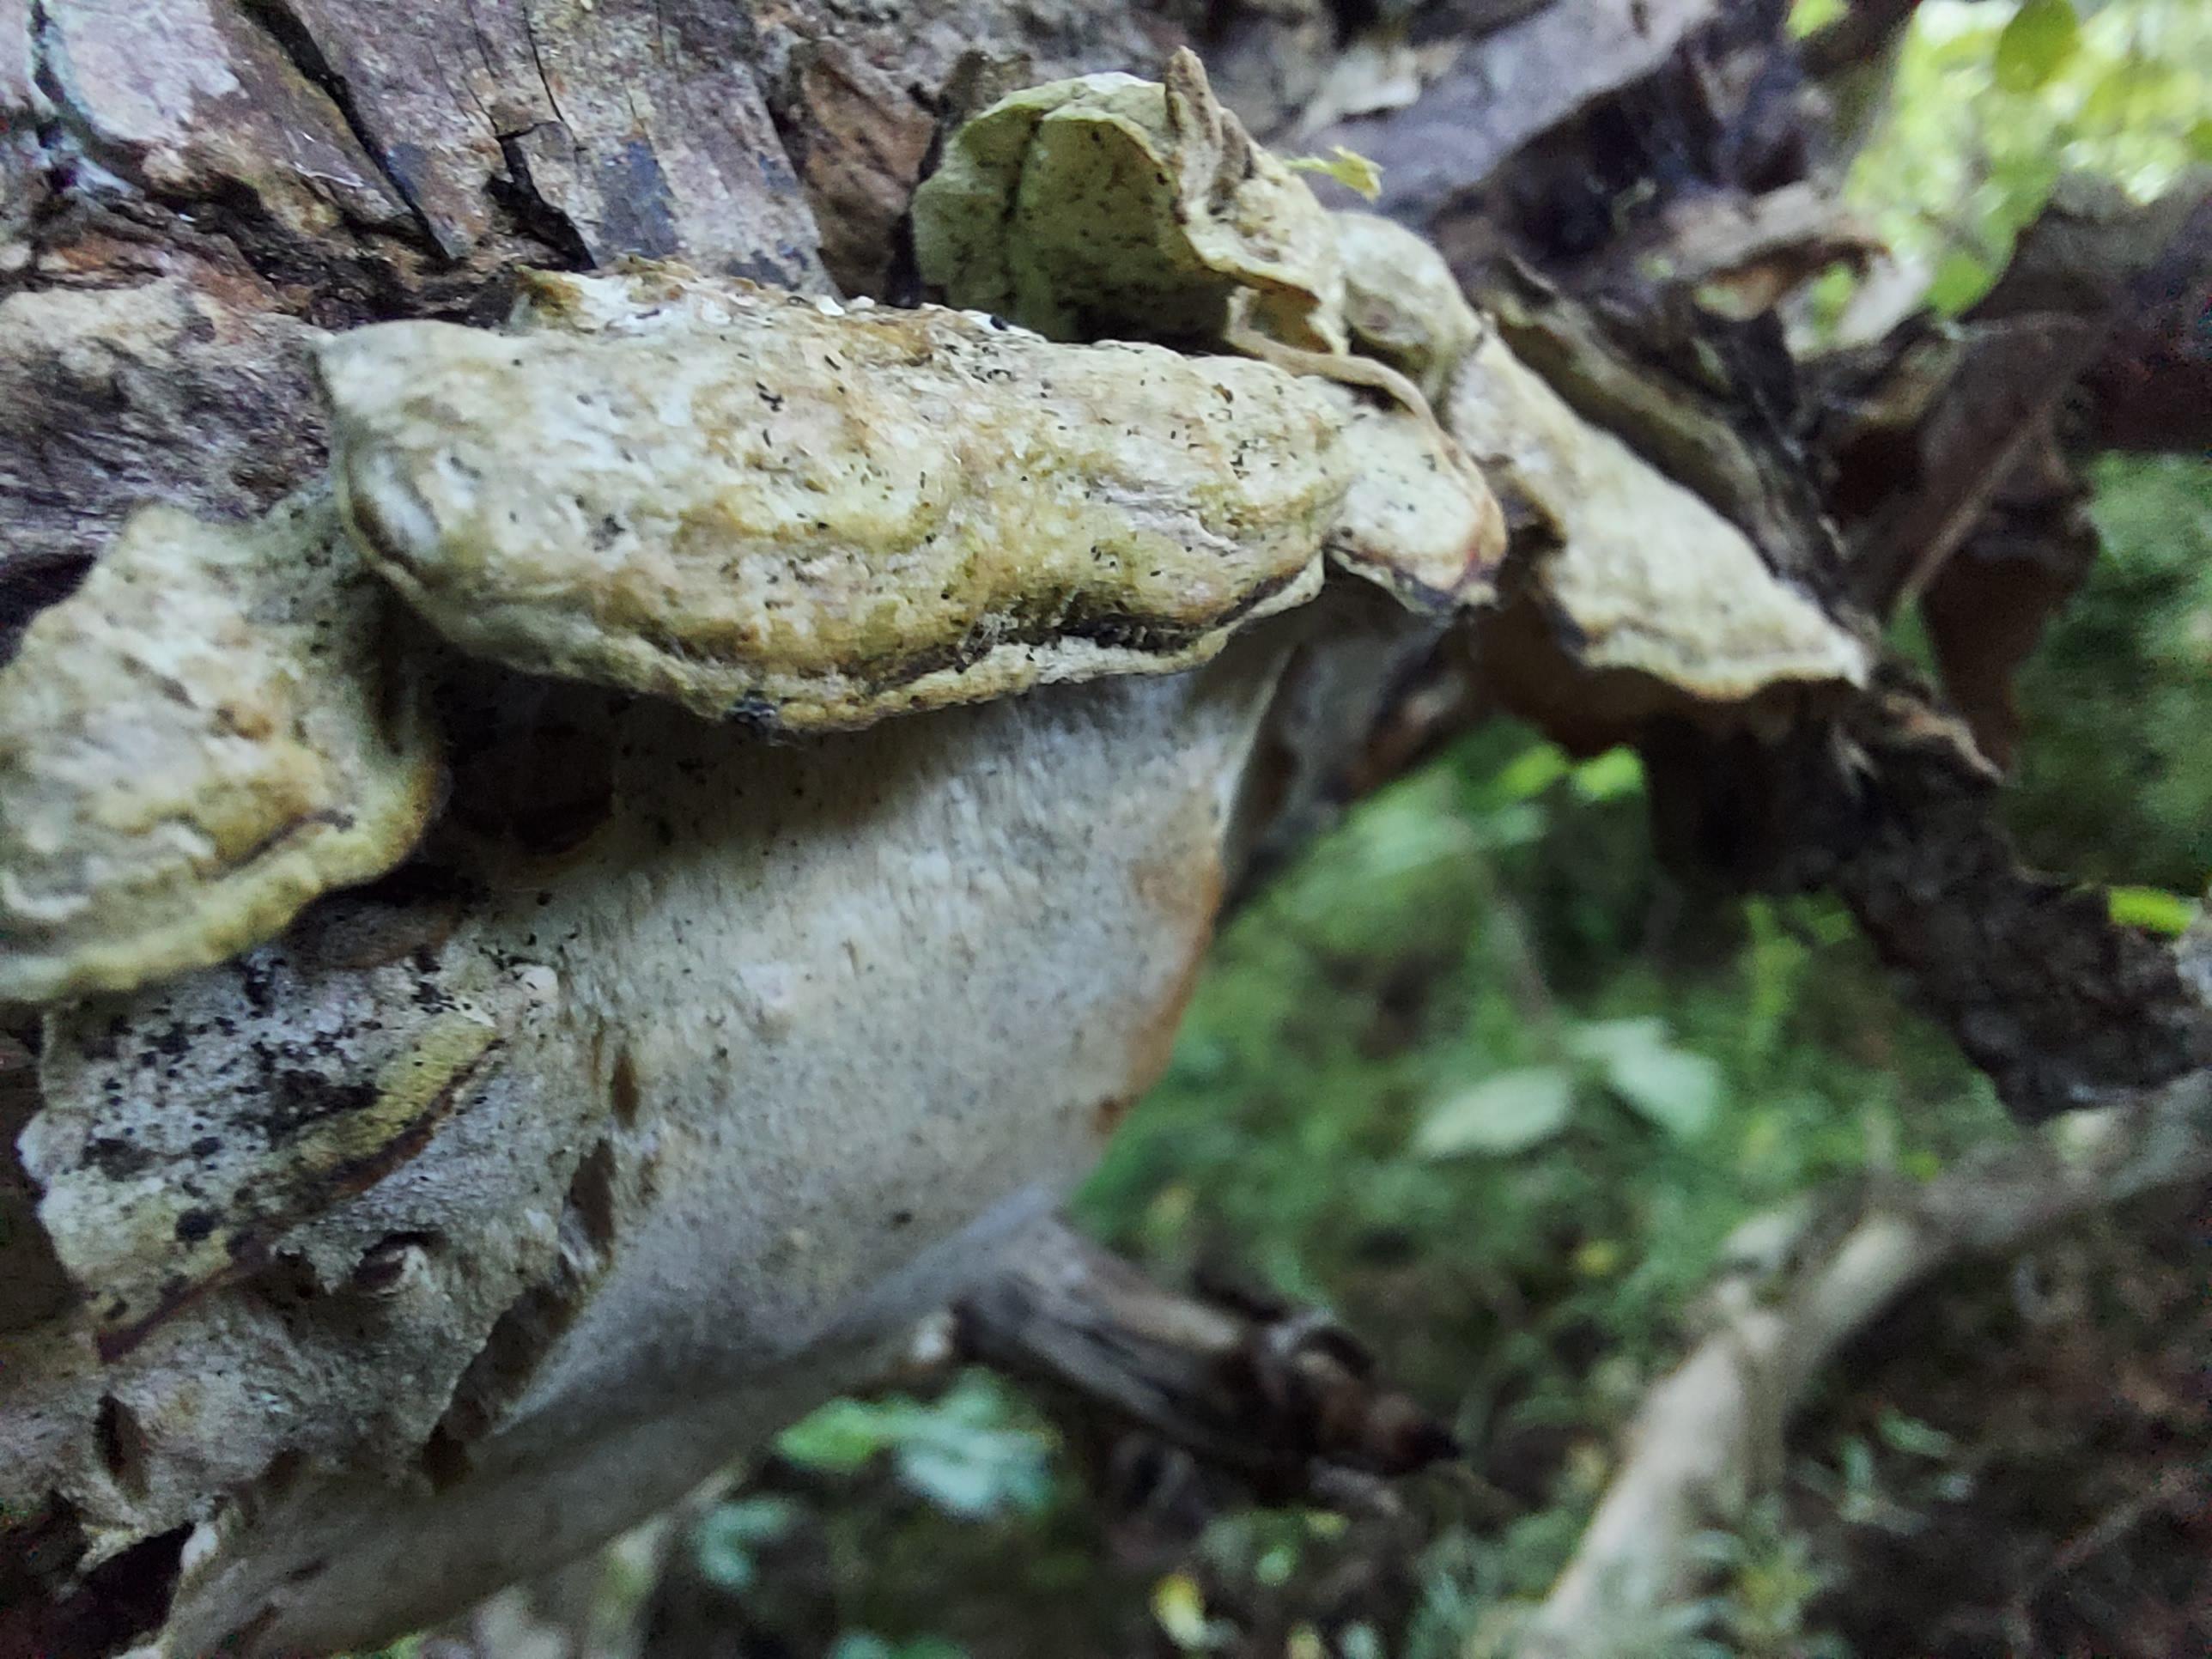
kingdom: Fungi
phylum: Basidiomycota
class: Agaricomycetes
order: Hymenochaetales
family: Oxyporaceae
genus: Oxyporus
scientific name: Oxyporus populinus
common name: sammenvokset trylleporesvamp
